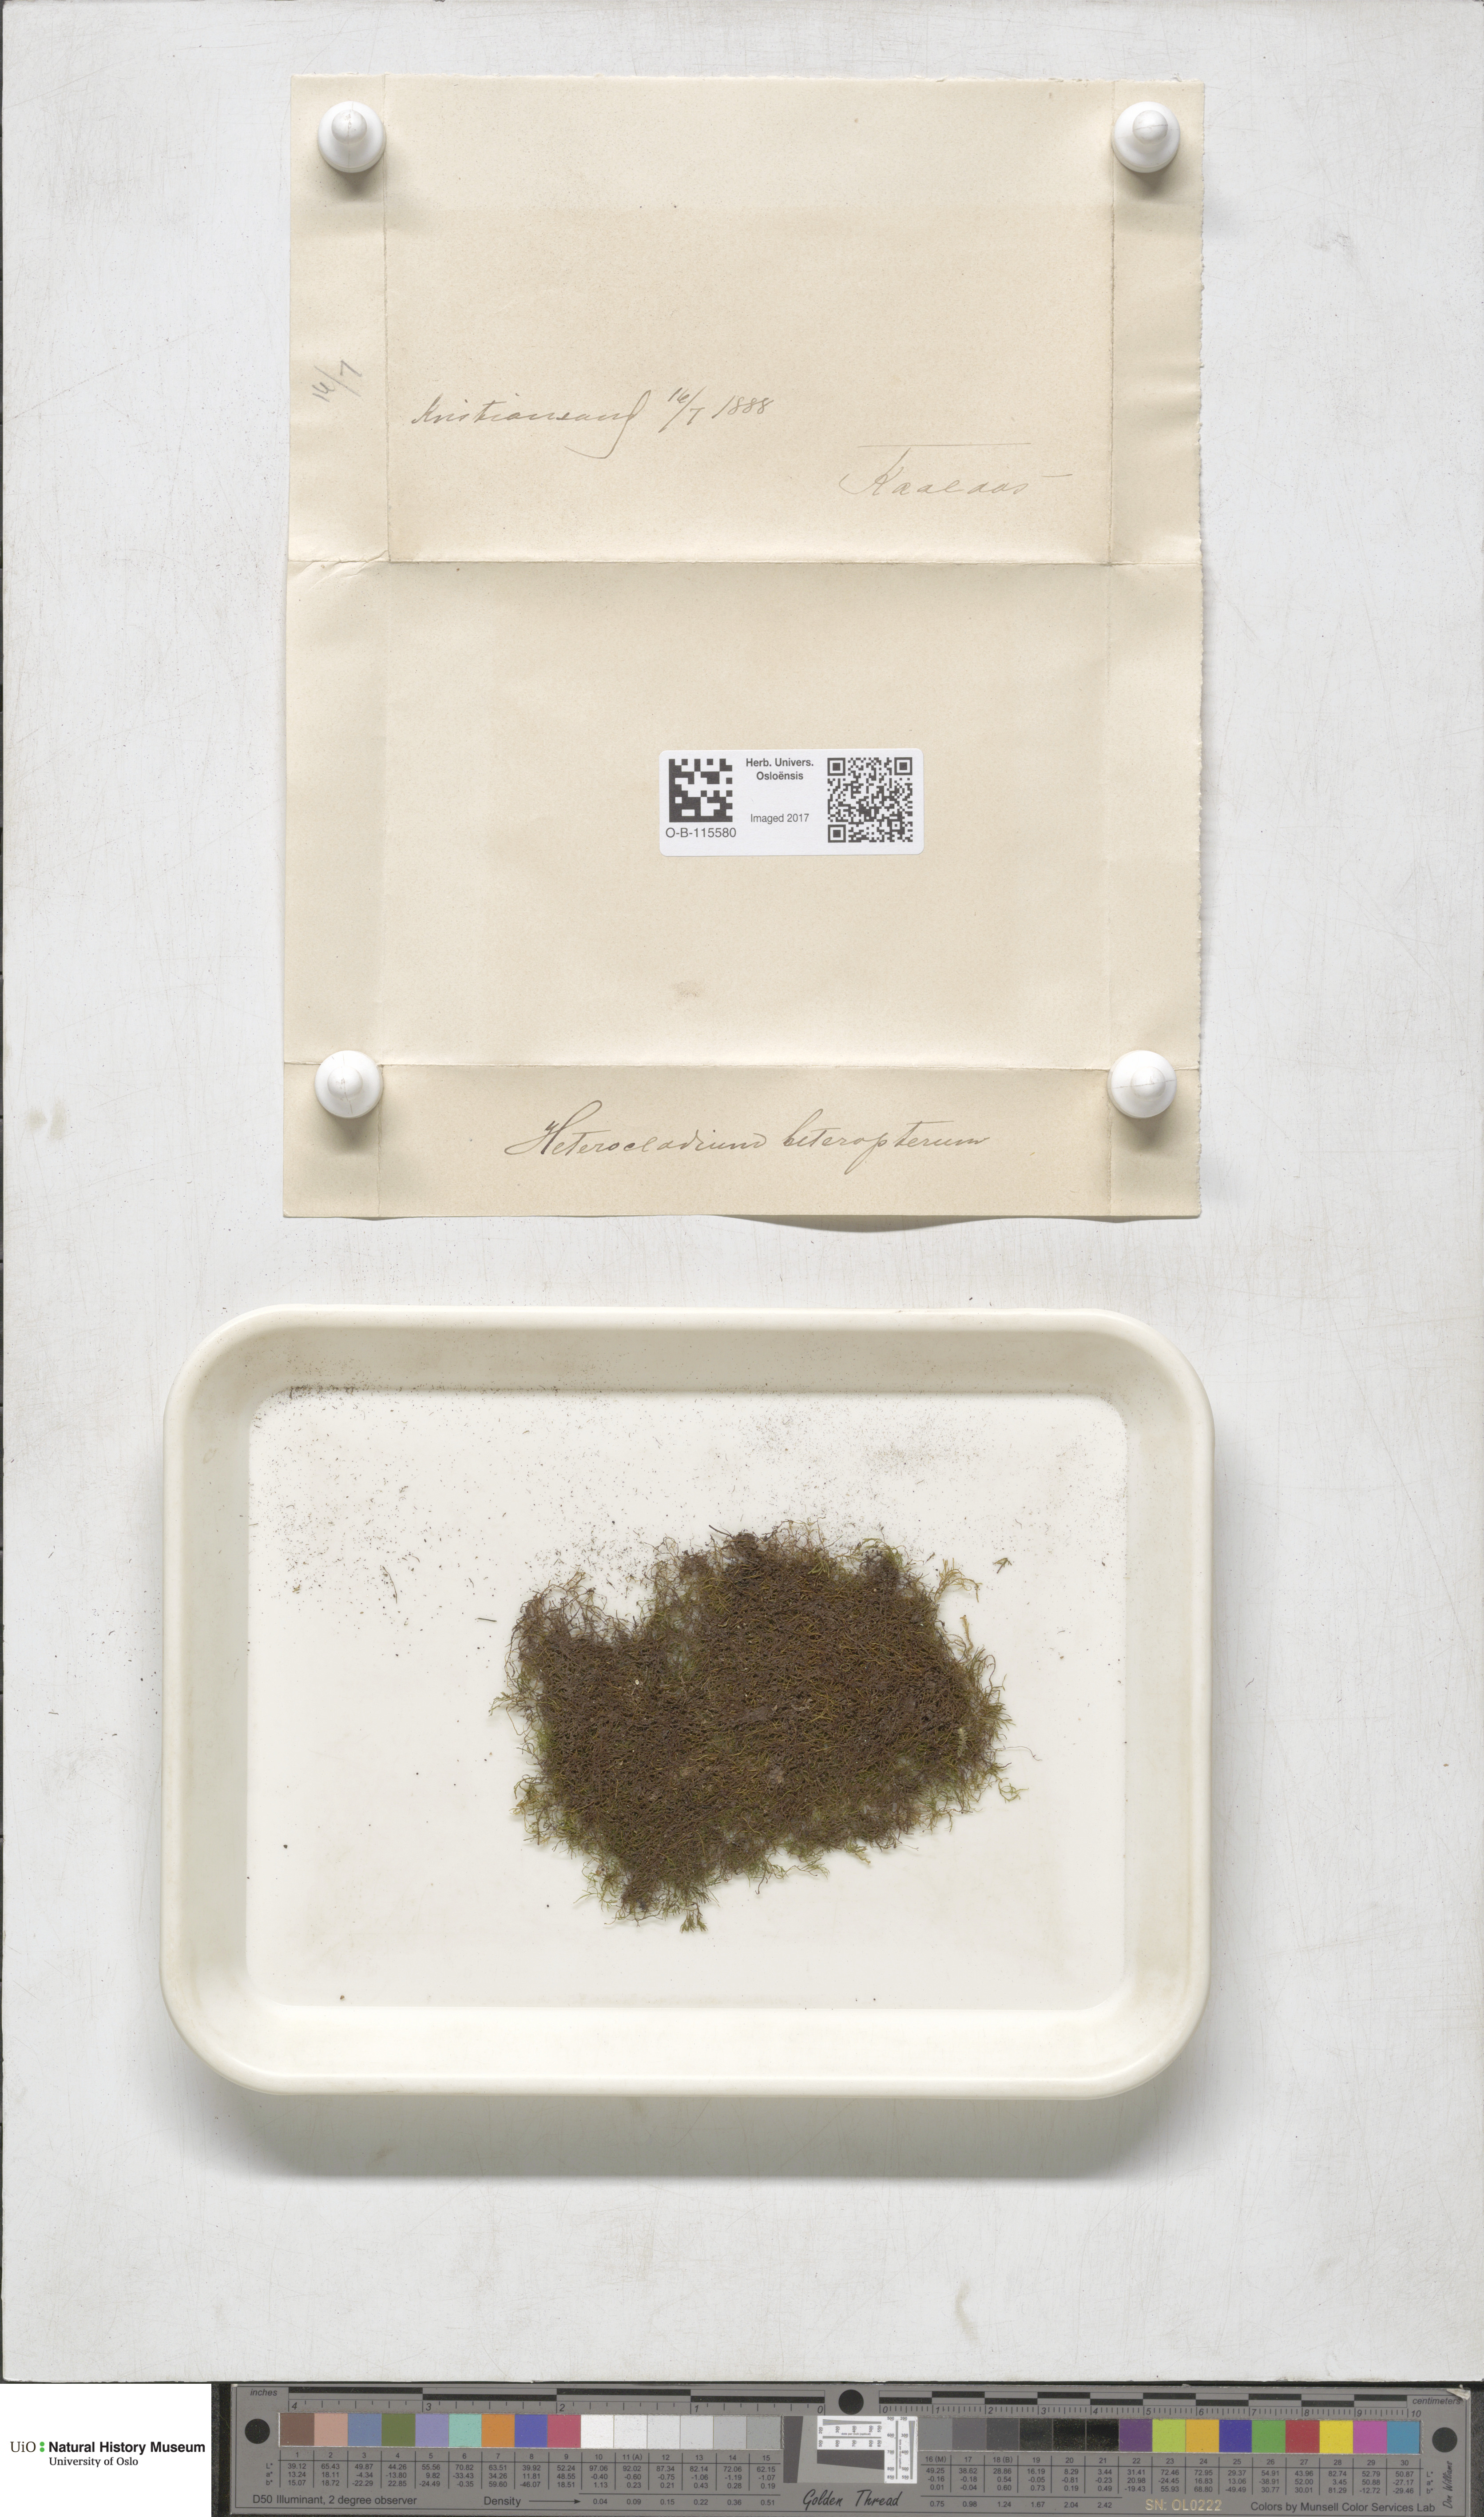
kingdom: Plantae
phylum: Bryophyta
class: Bryopsida
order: Hypnales
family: Lembophyllaceae
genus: Heterocladium
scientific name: Heterocladium heteropterum
